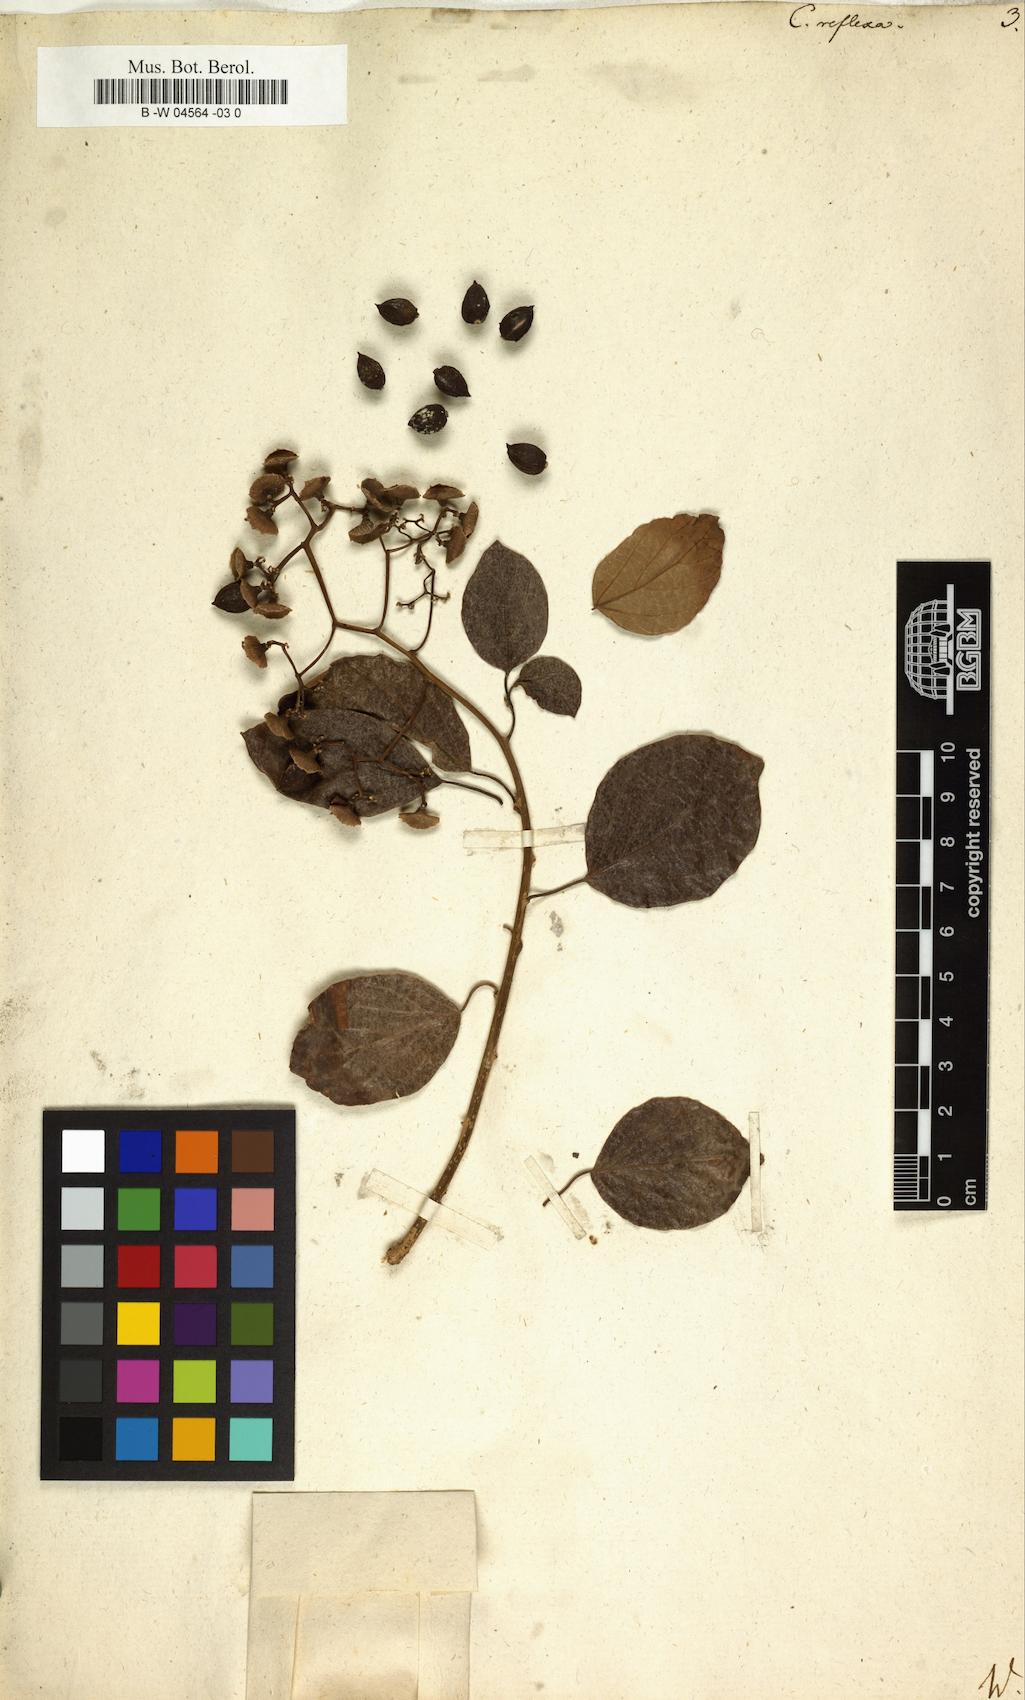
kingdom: Plantae
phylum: Tracheophyta
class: Magnoliopsida
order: Boraginales
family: Cordiaceae
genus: Cordia
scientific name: Cordia reflexa
